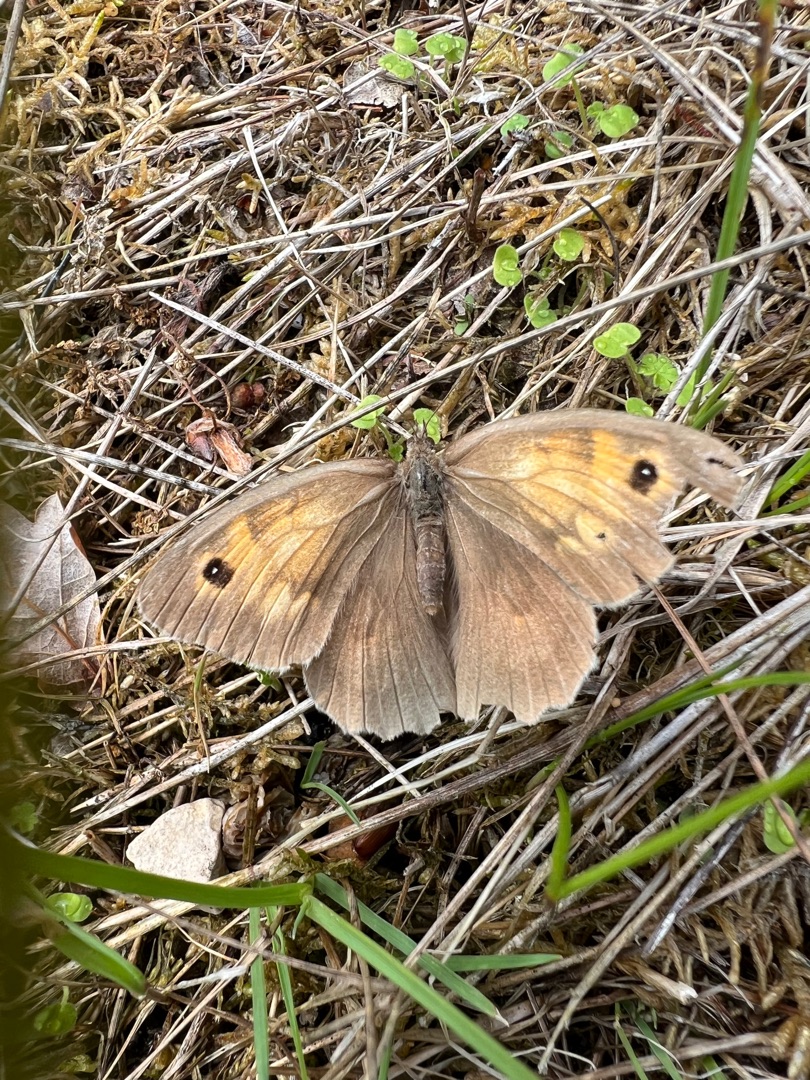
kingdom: Animalia
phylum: Arthropoda
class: Insecta
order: Lepidoptera
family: Nymphalidae
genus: Maniola
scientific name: Maniola jurtina
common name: Græsrandøje
